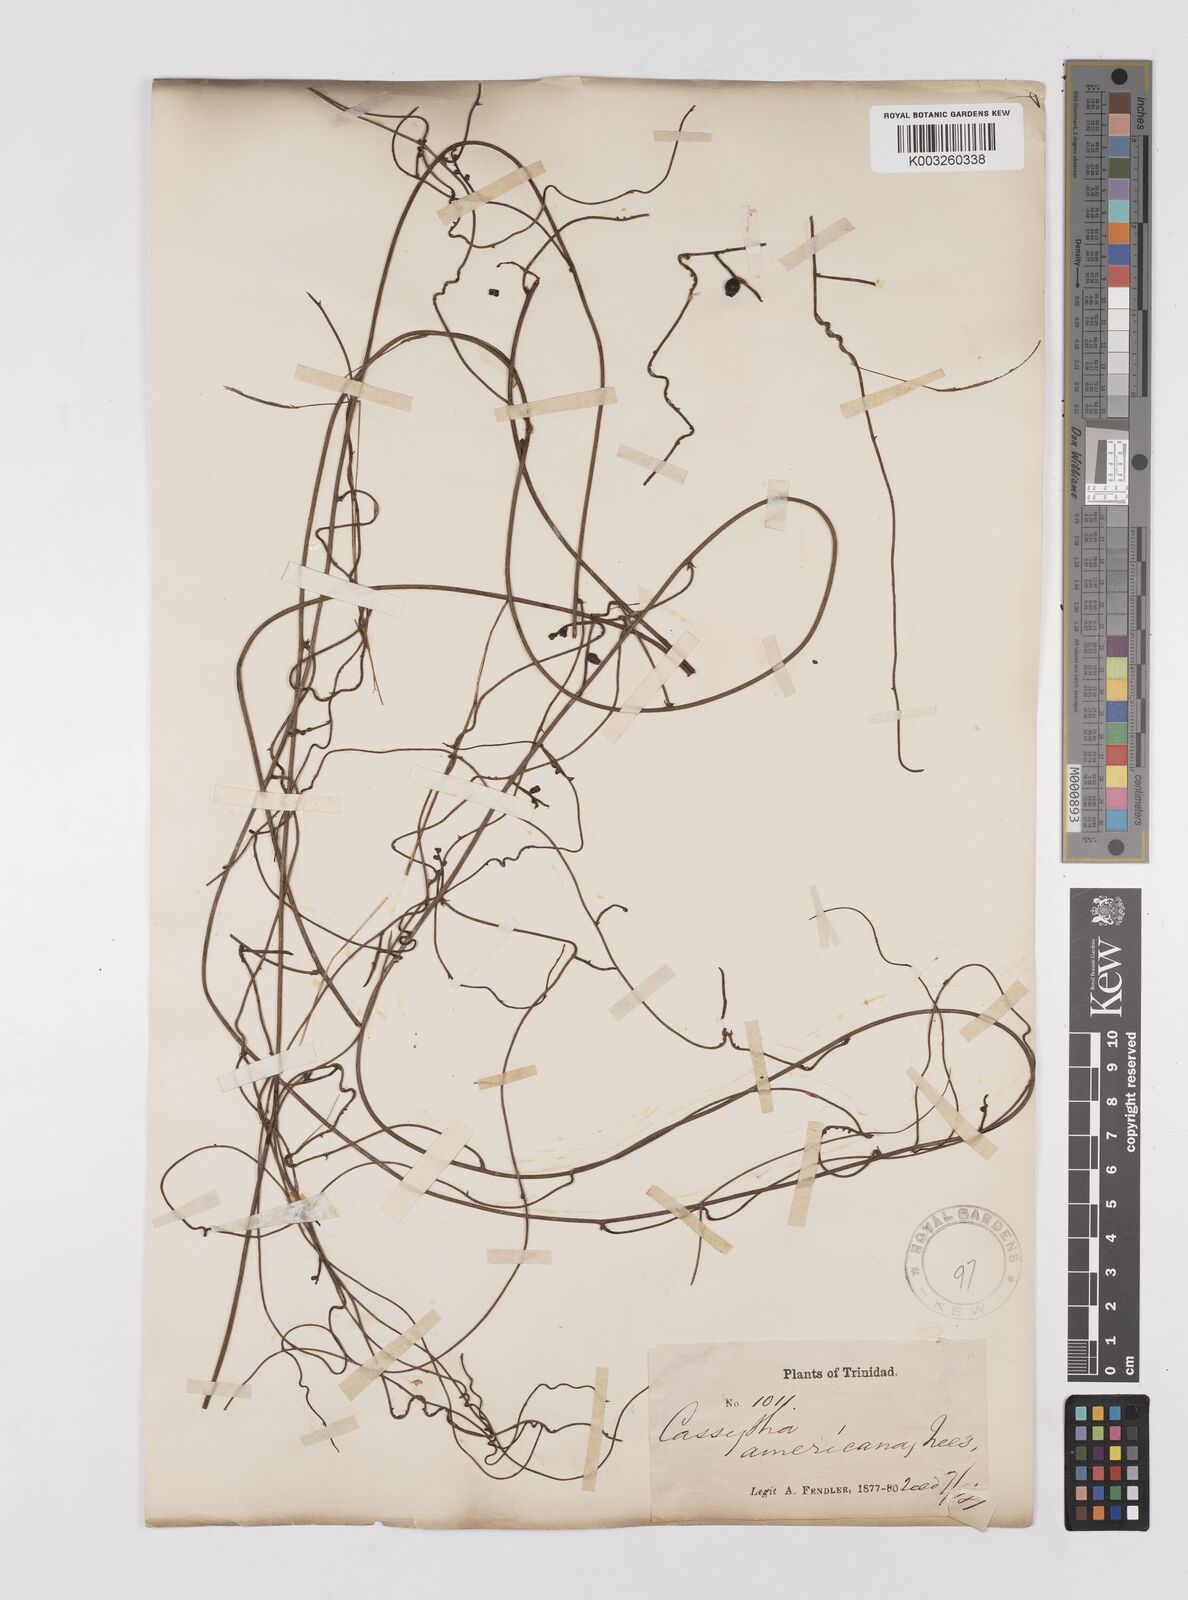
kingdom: Plantae
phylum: Tracheophyta
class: Magnoliopsida
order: Laurales
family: Lauraceae
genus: Cassytha
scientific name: Cassytha filiformis
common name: Dodder-laurel
